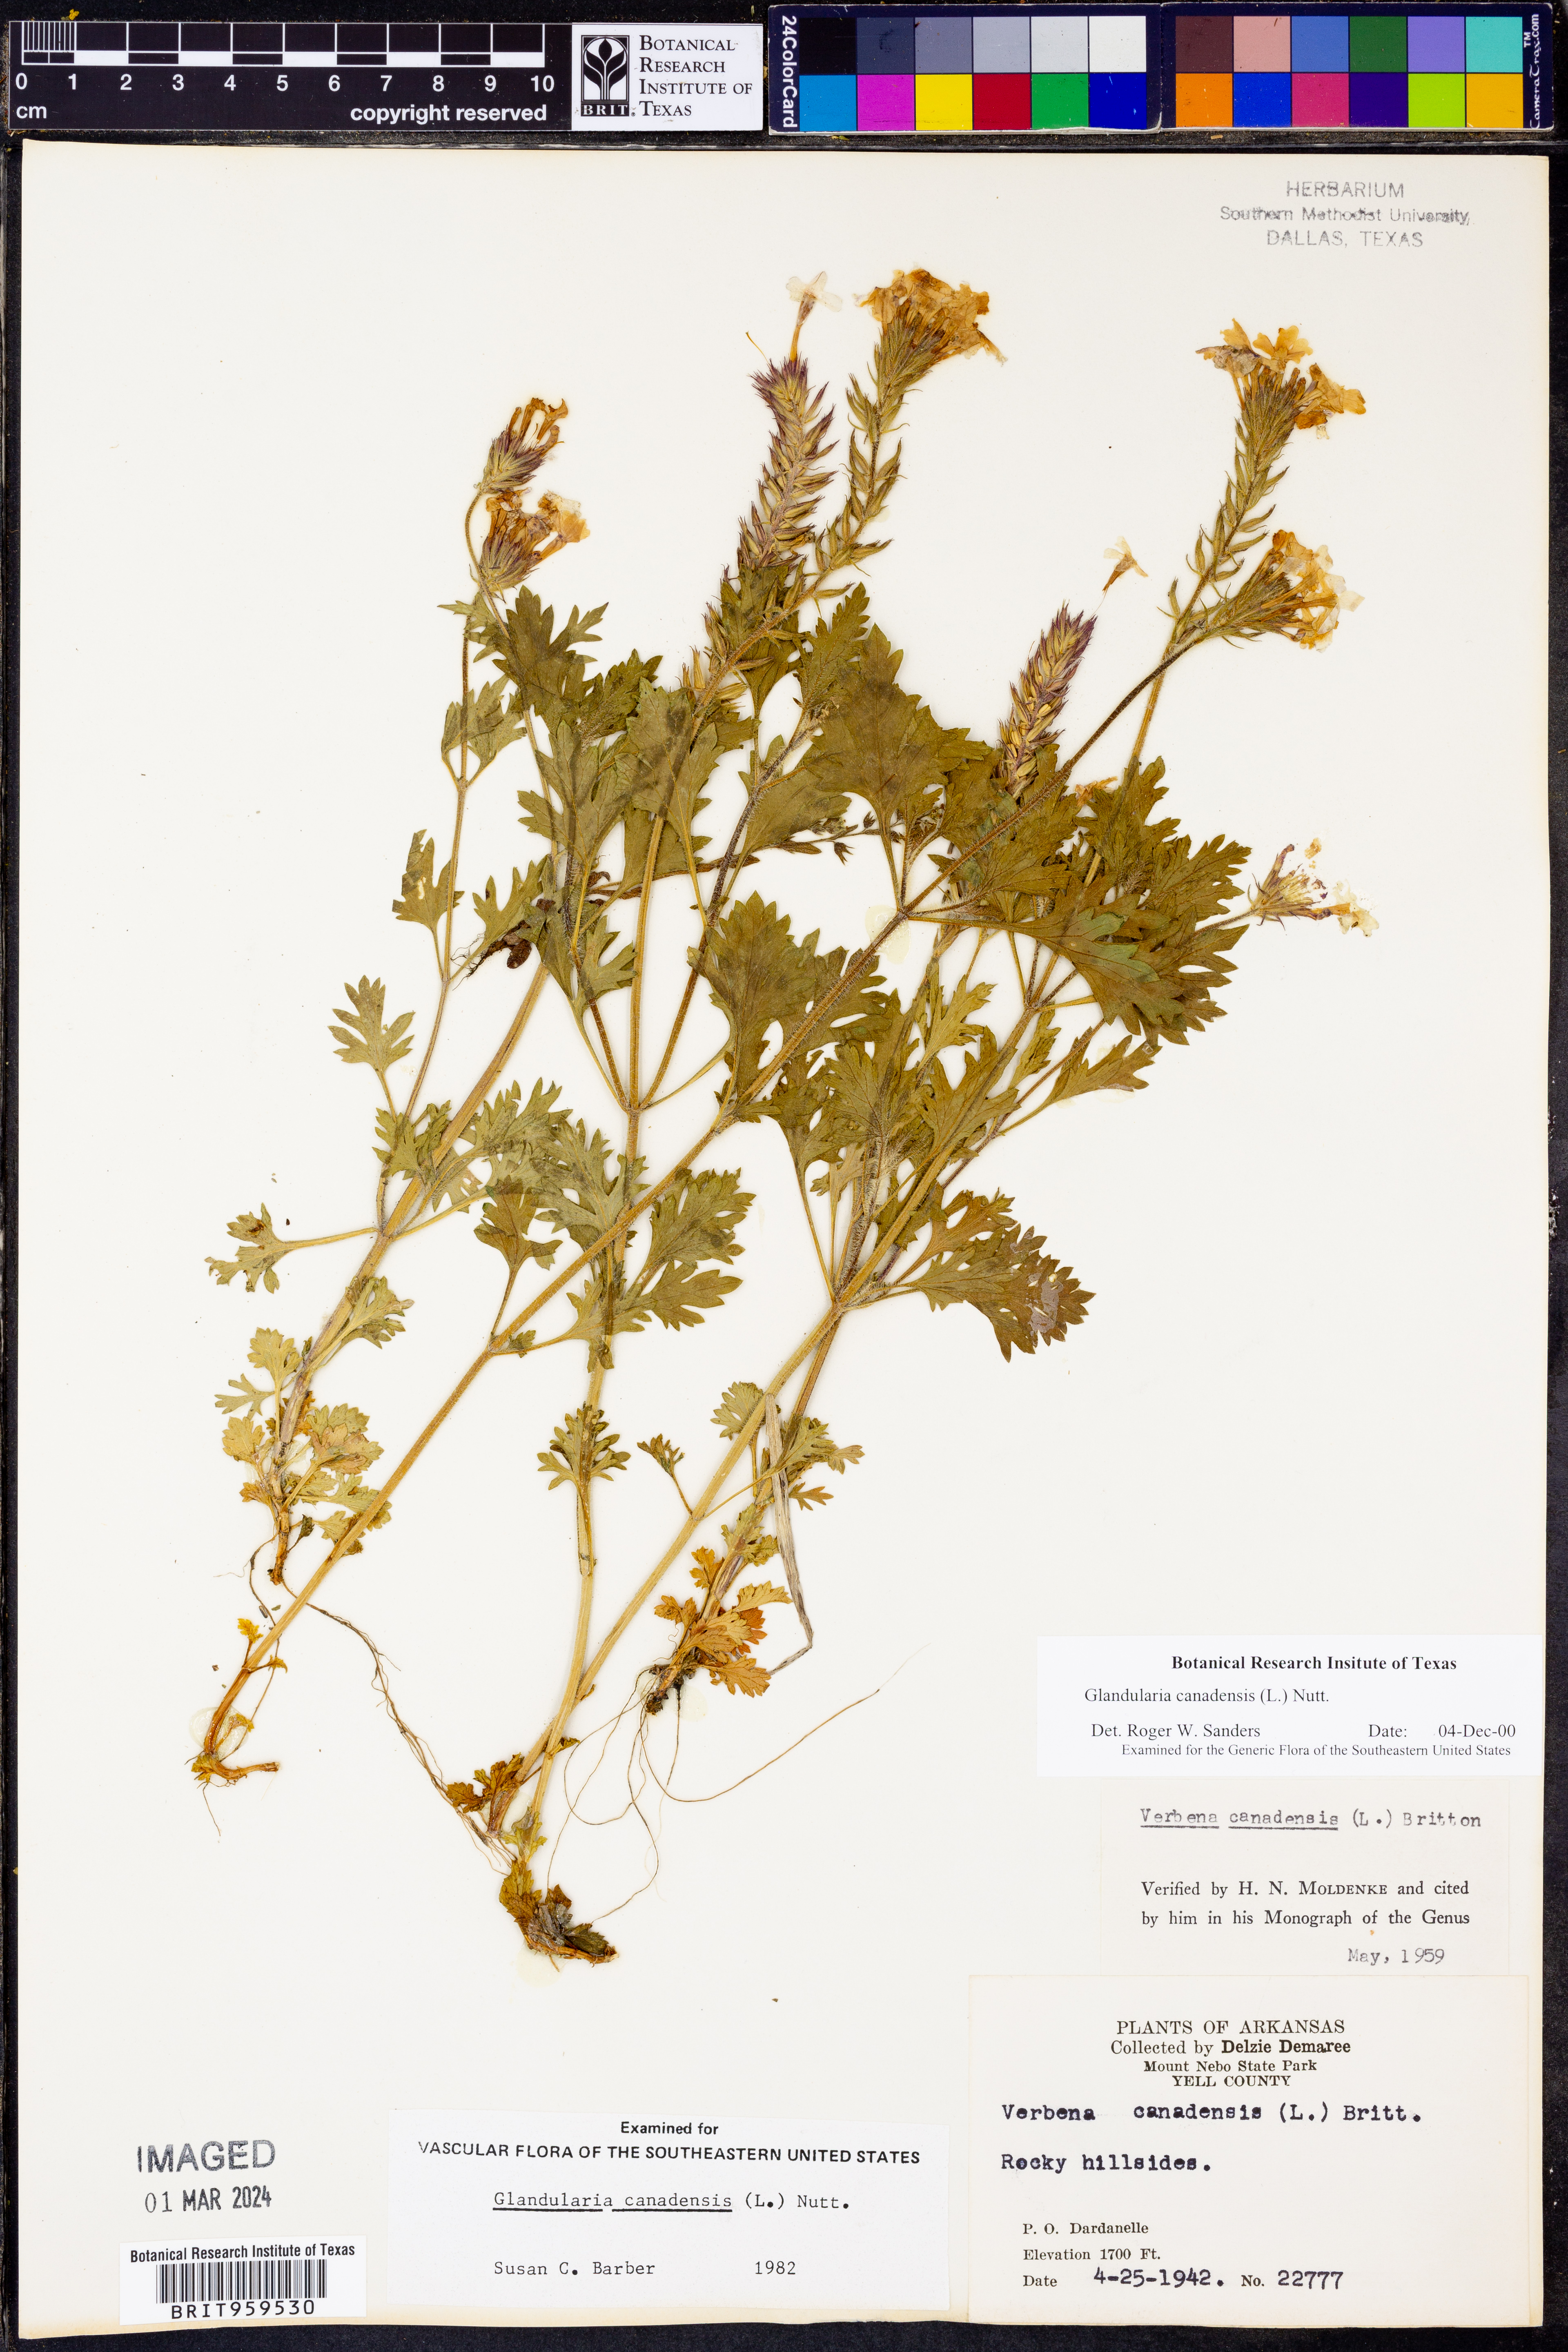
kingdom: Plantae
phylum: Tracheophyta
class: Magnoliopsida
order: Lamiales
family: Verbenaceae
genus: Verbena
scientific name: Verbena canadensis
